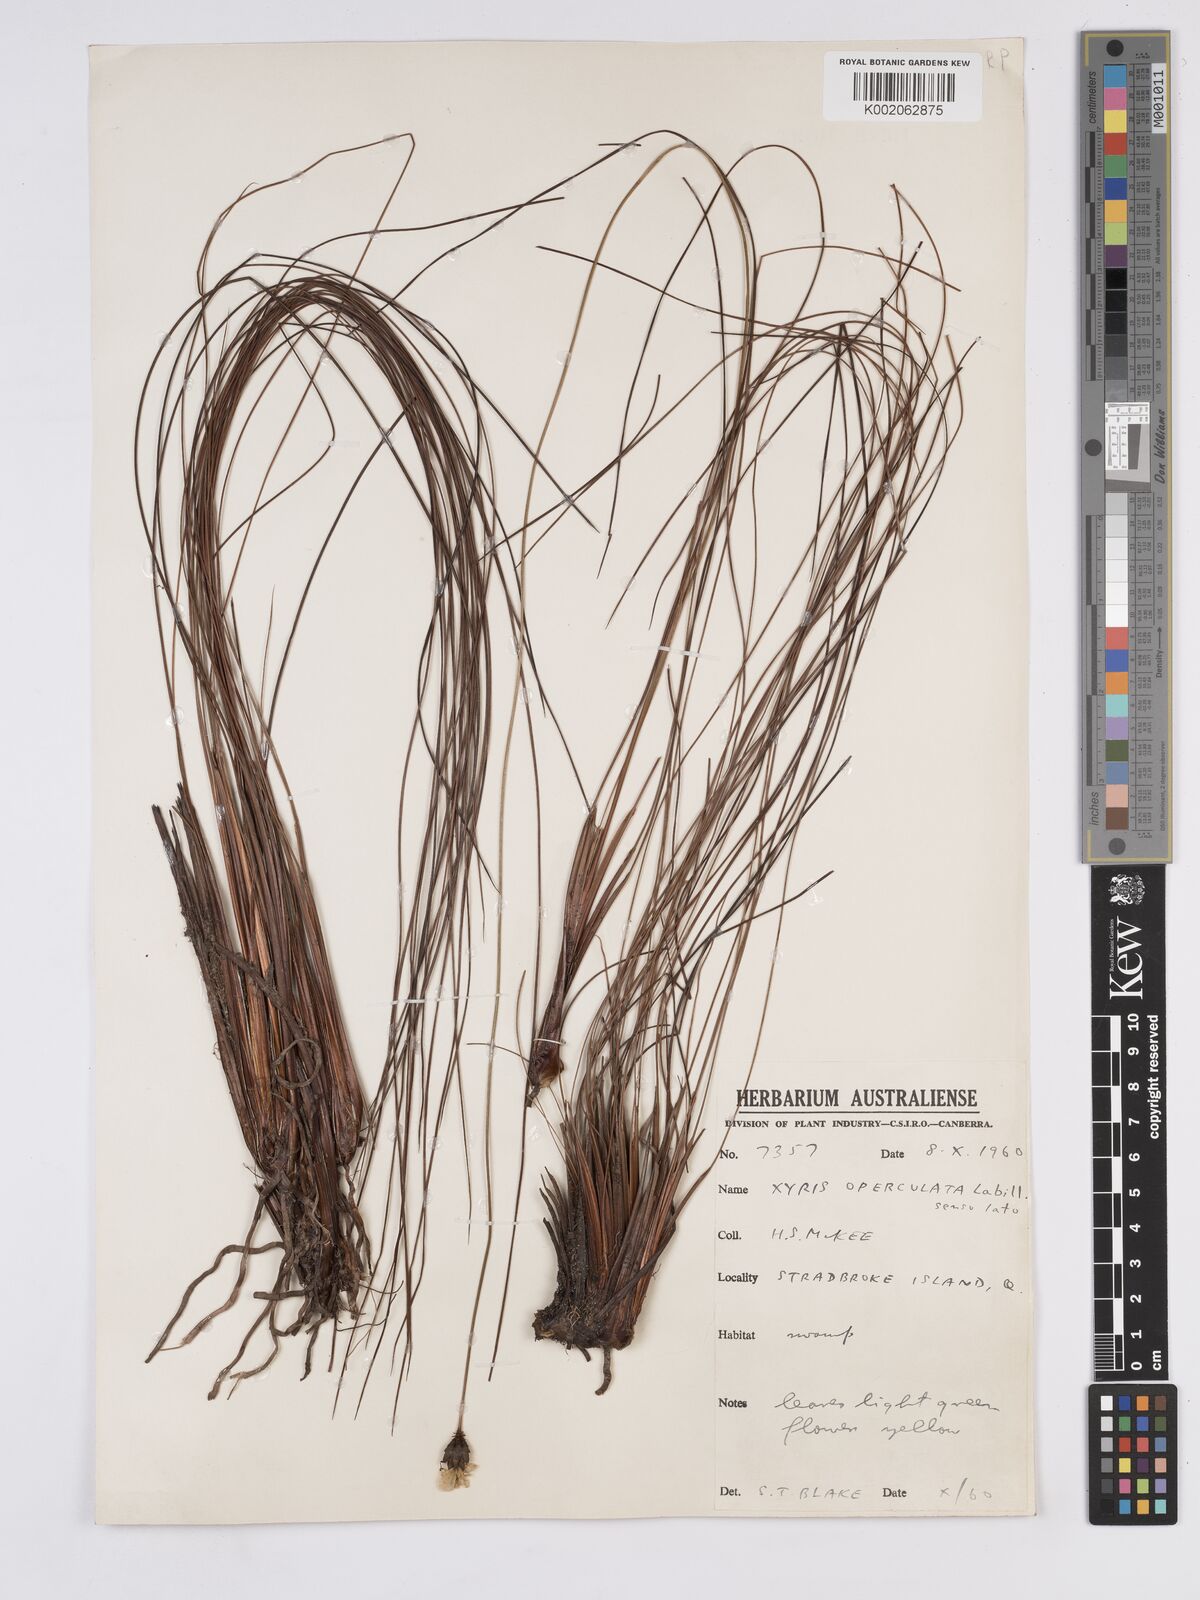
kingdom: Plantae
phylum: Tracheophyta
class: Liliopsida
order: Poales
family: Xyridaceae
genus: Xyris
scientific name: Xyris operculata
